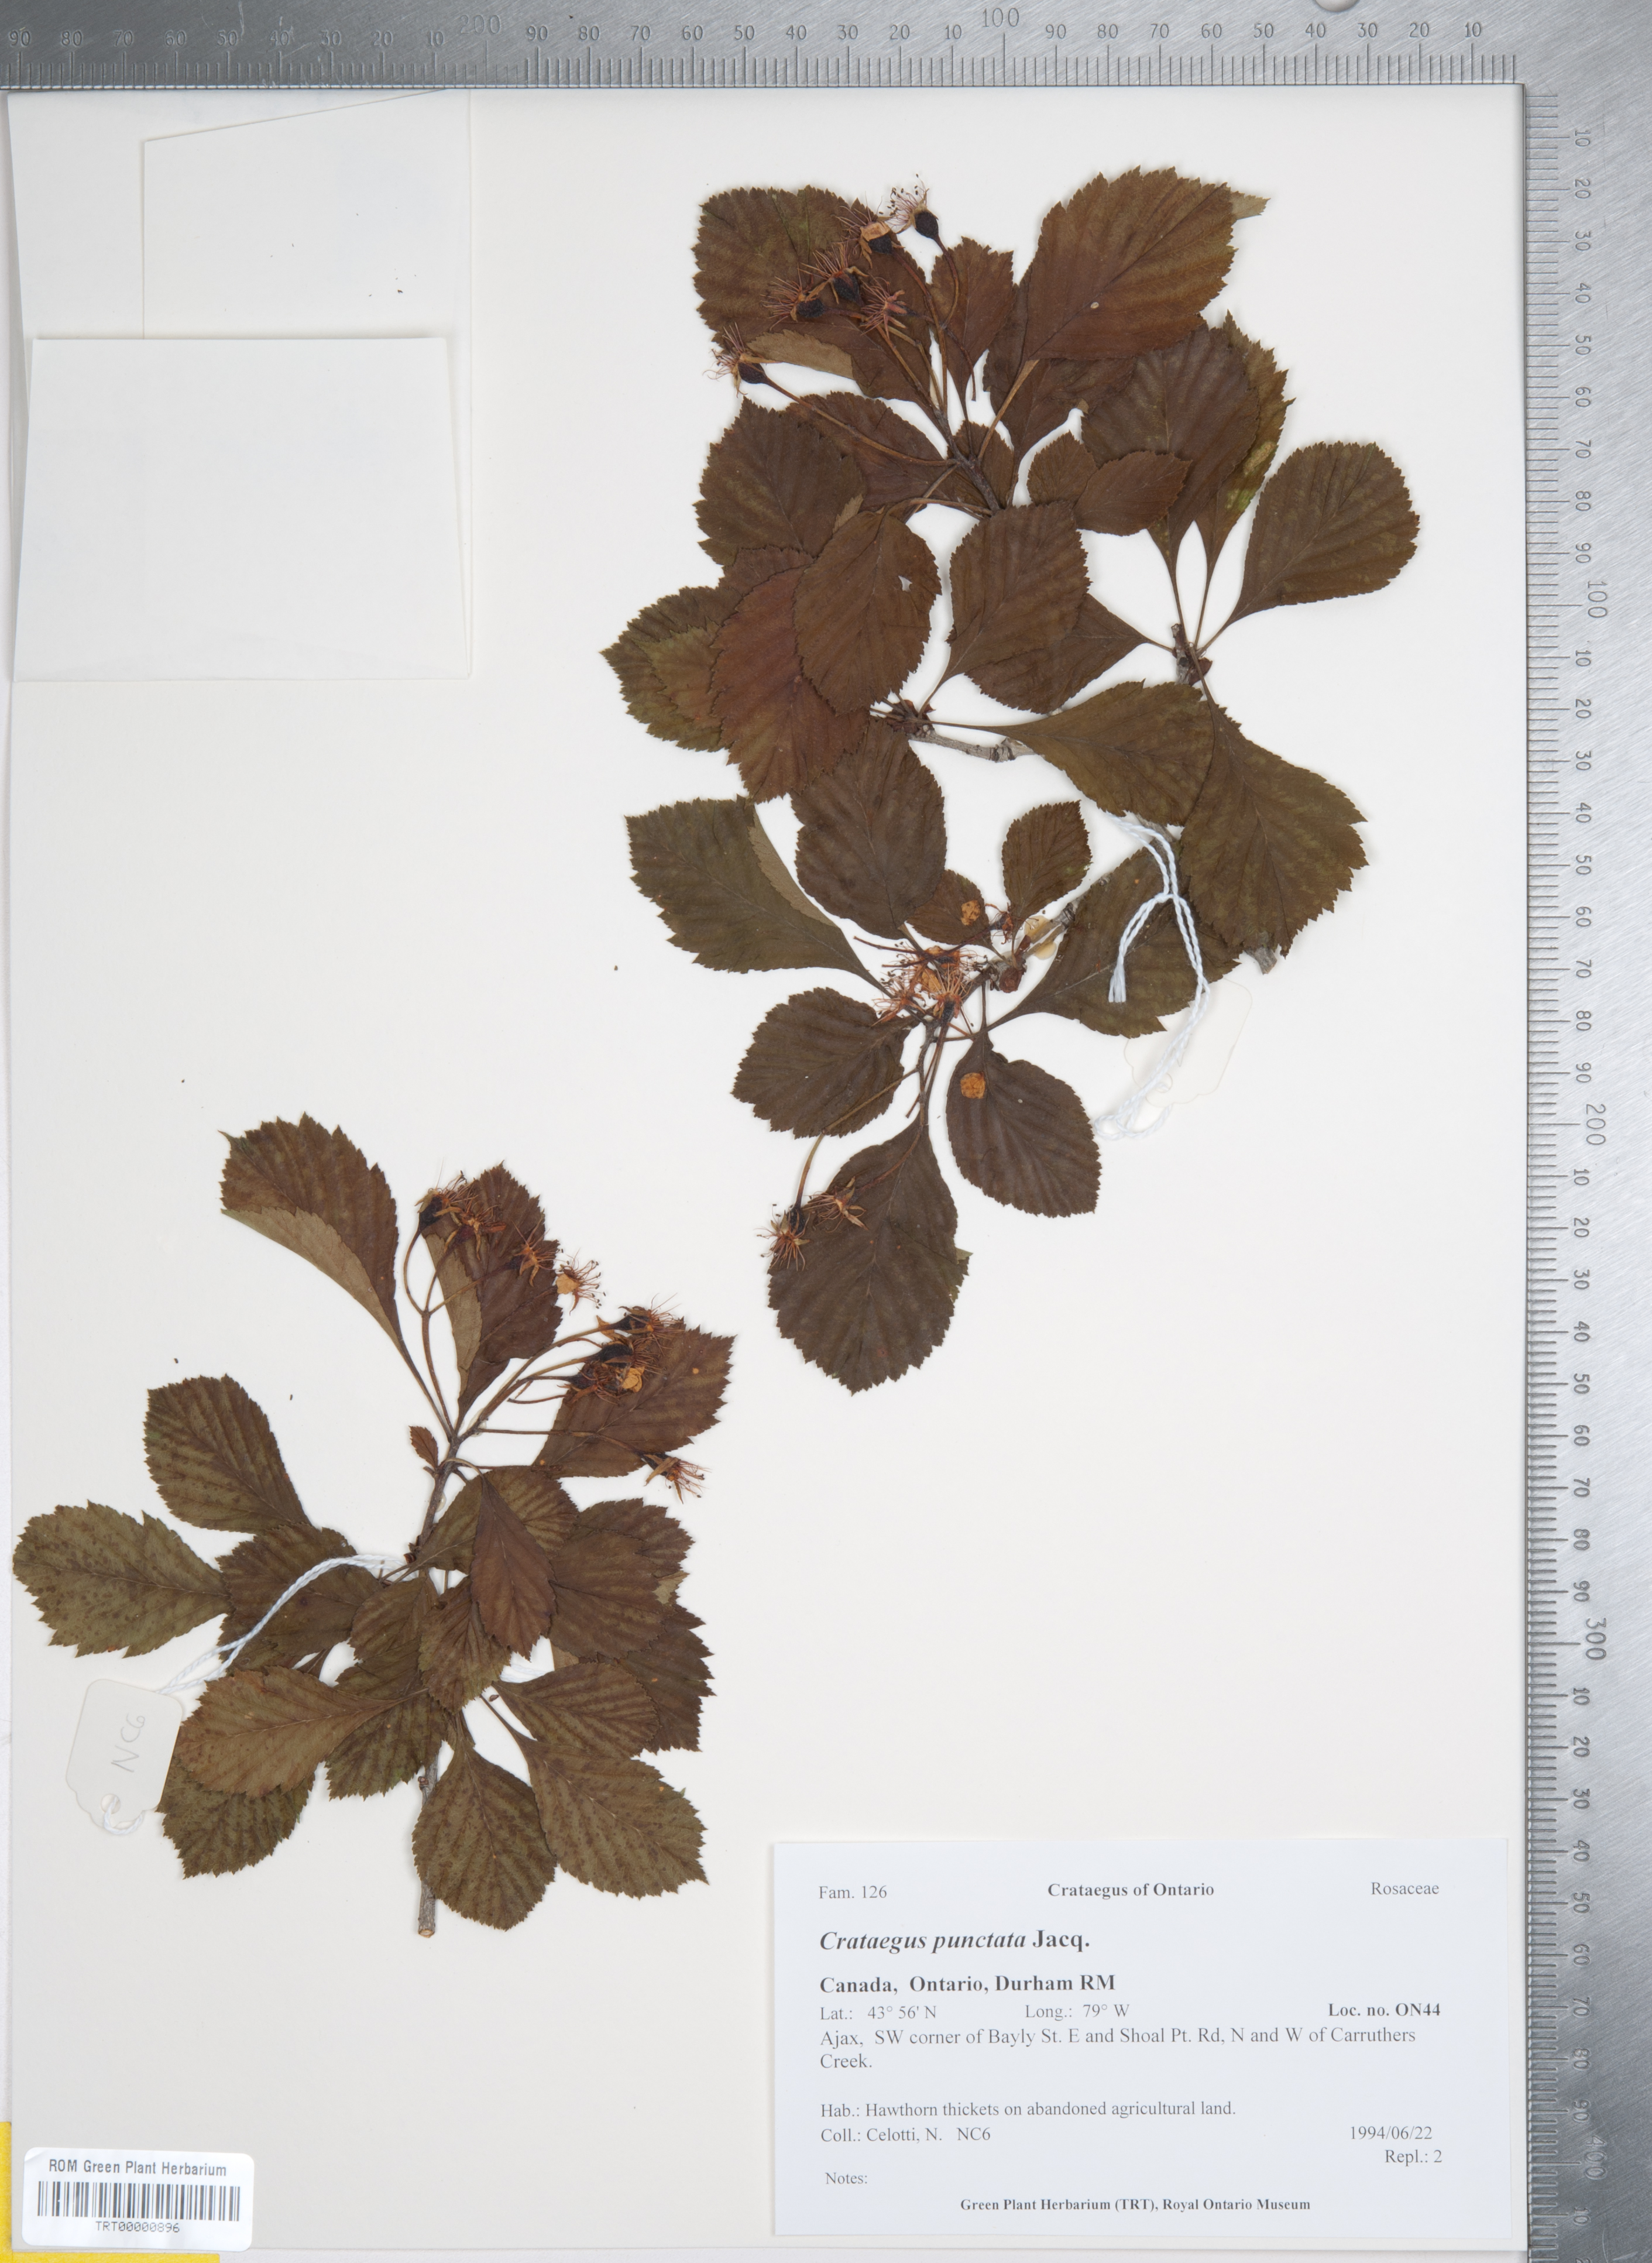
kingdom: Plantae
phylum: Tracheophyta
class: Magnoliopsida
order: Rosales
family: Rosaceae
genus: Crataegus
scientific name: Crataegus punctata
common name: Dotted hawthorn
